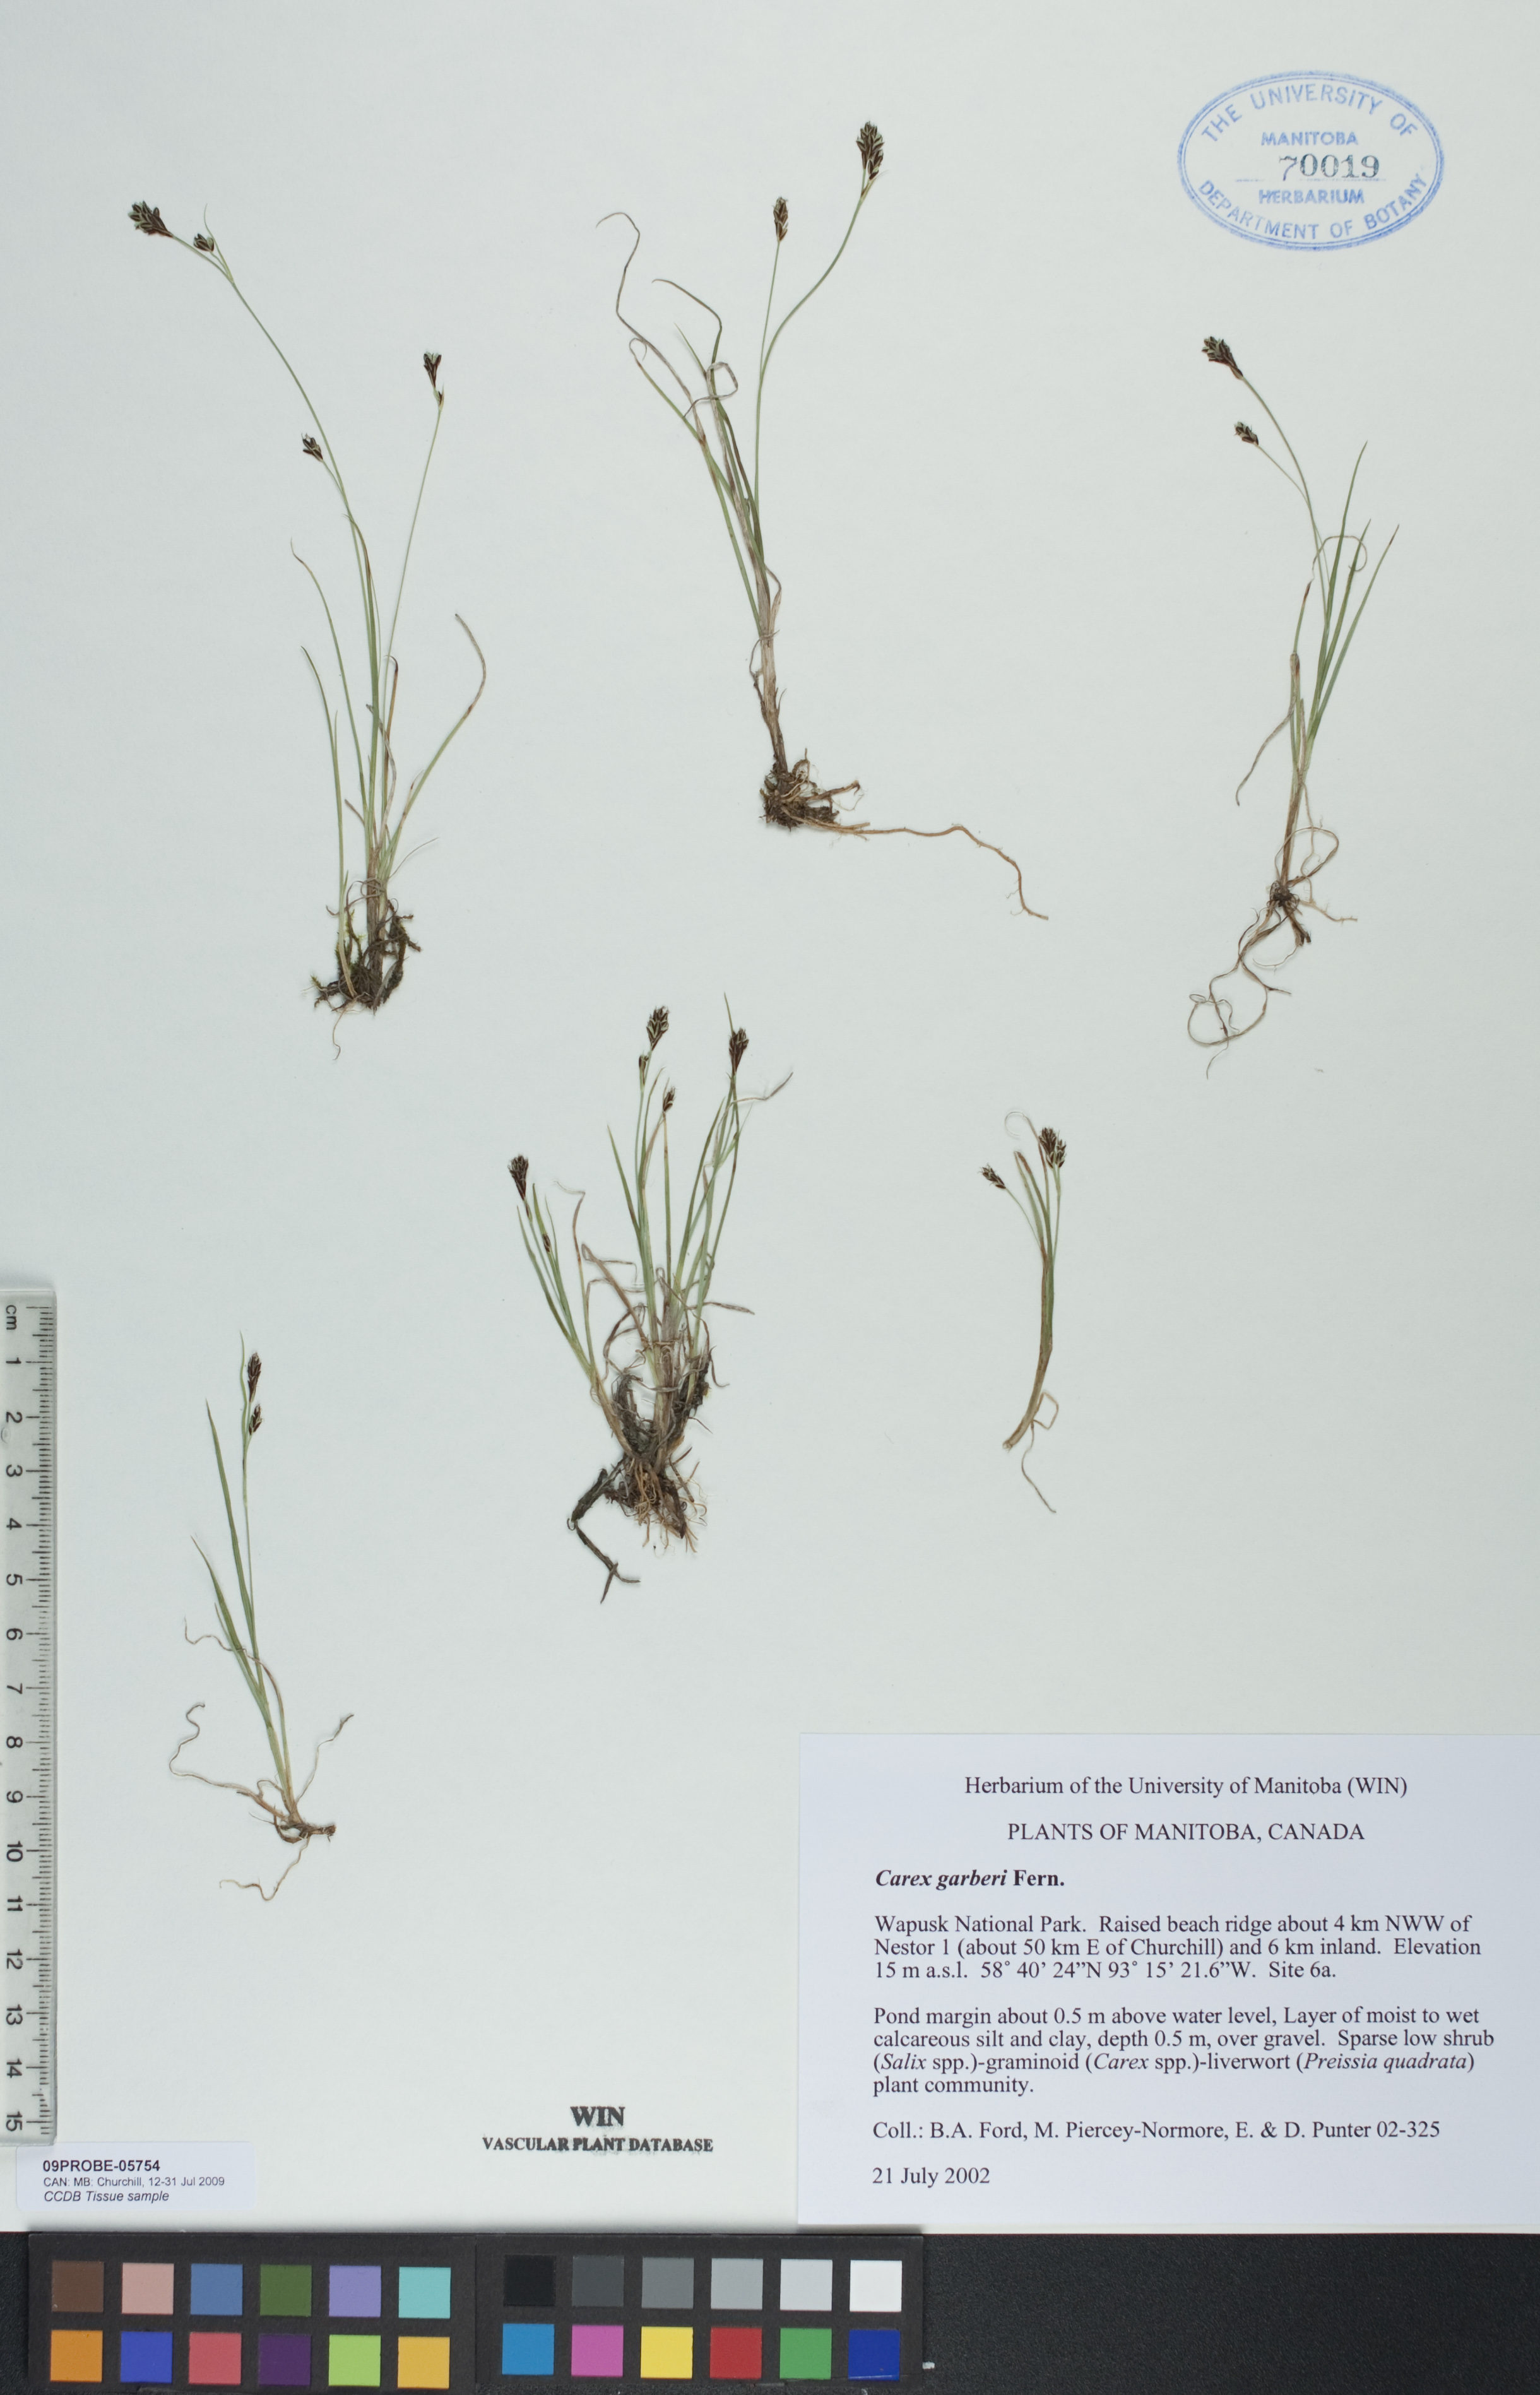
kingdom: Plantae
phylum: Tracheophyta
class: Liliopsida
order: Poales
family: Cyperaceae
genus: Carex
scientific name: Carex garberi
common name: Elk sedge
